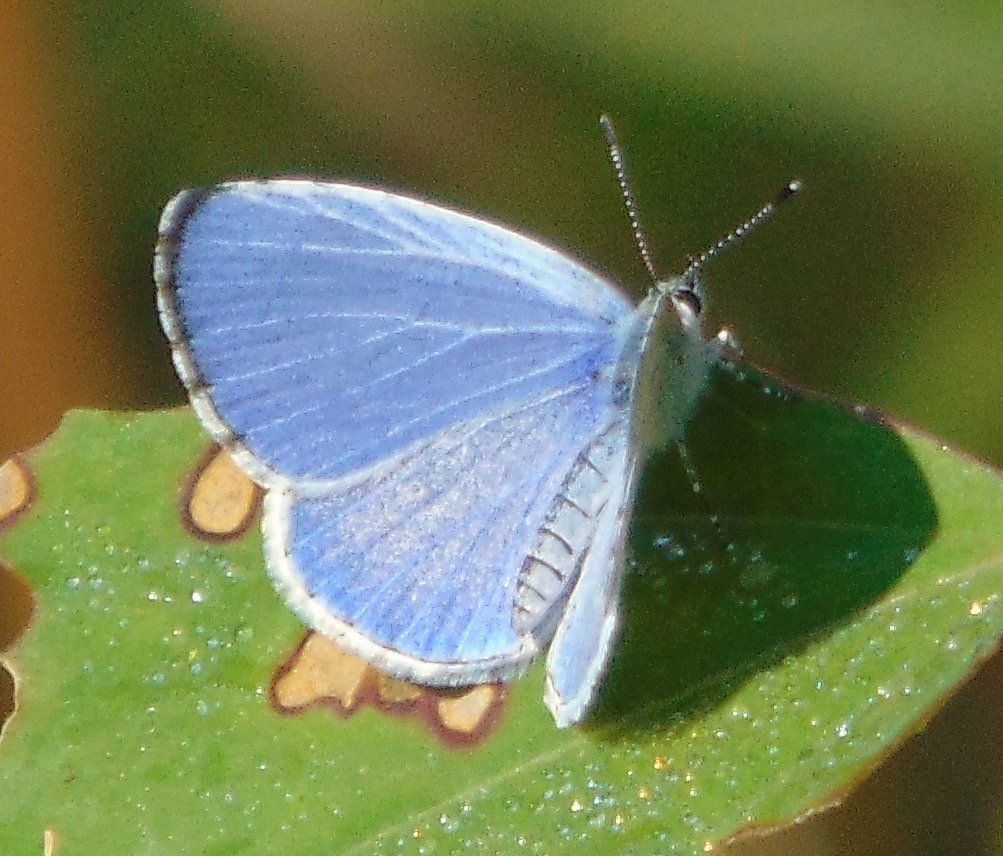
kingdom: Animalia
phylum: Arthropoda
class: Insecta
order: Lepidoptera
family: Lycaenidae
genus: Cyaniris
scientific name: Cyaniris neglecta
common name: Summer Azure
